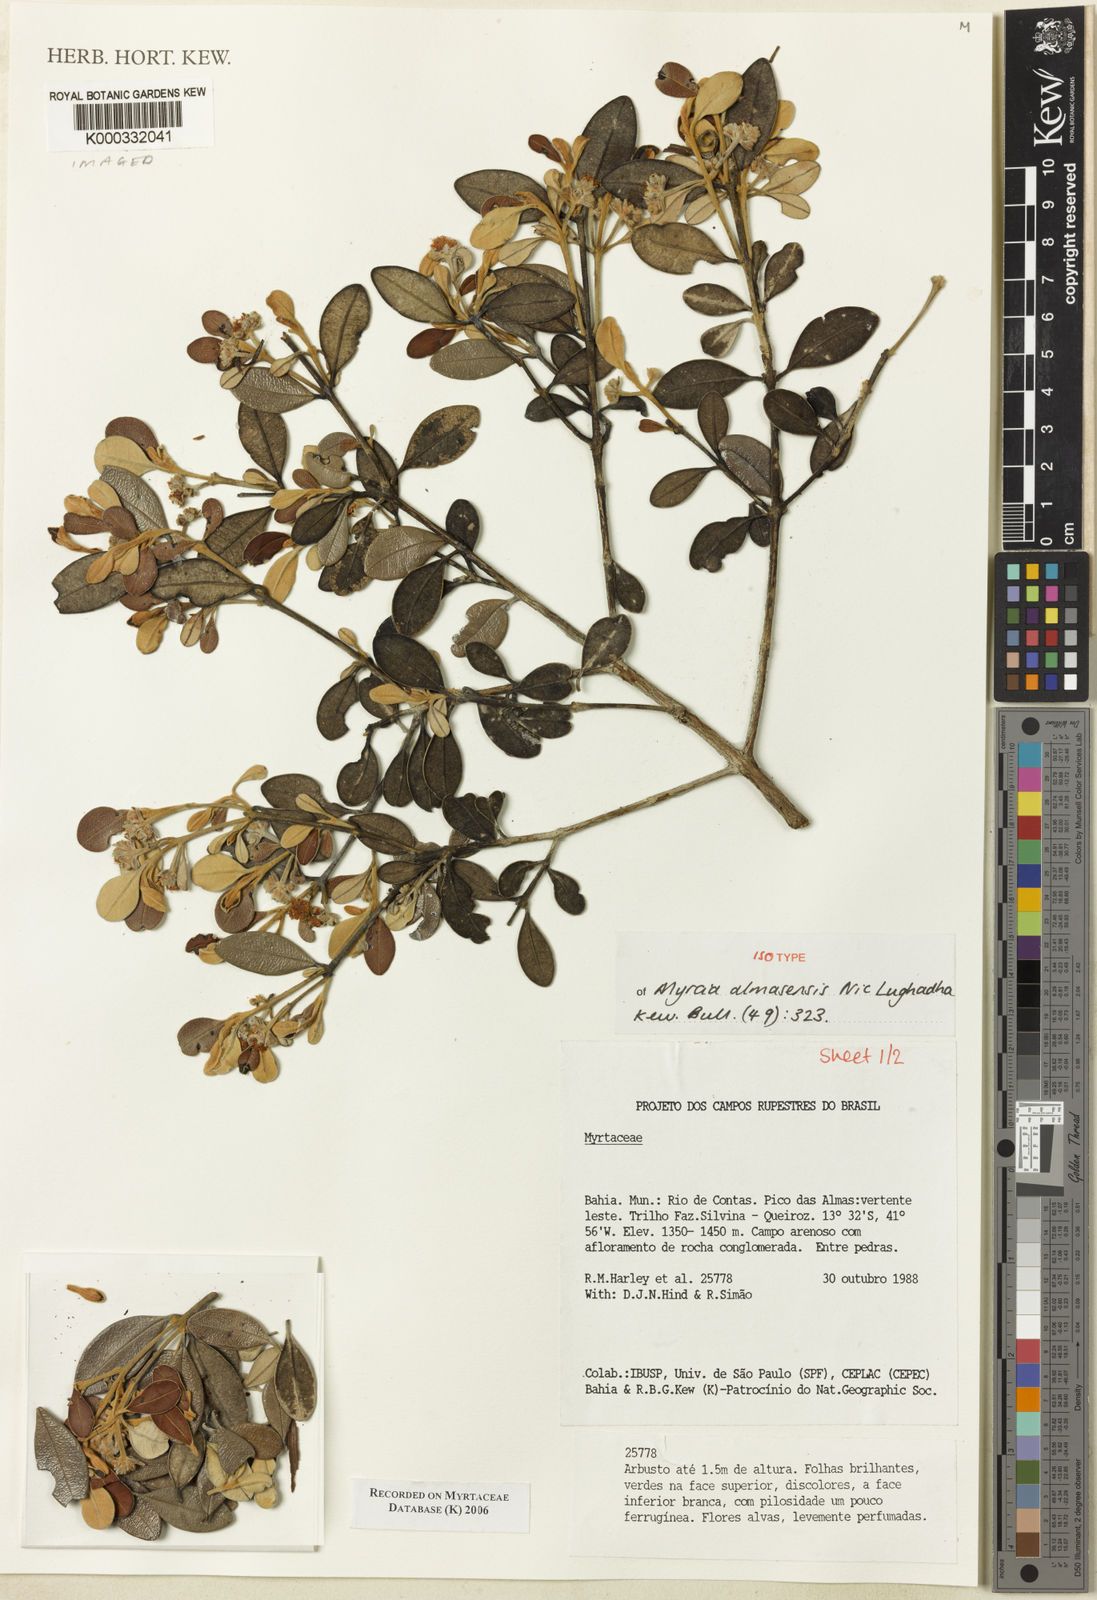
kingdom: Plantae
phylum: Tracheophyta
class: Magnoliopsida
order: Myrtales
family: Myrtaceae
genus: Myrcia
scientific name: Myrcia almasensis
